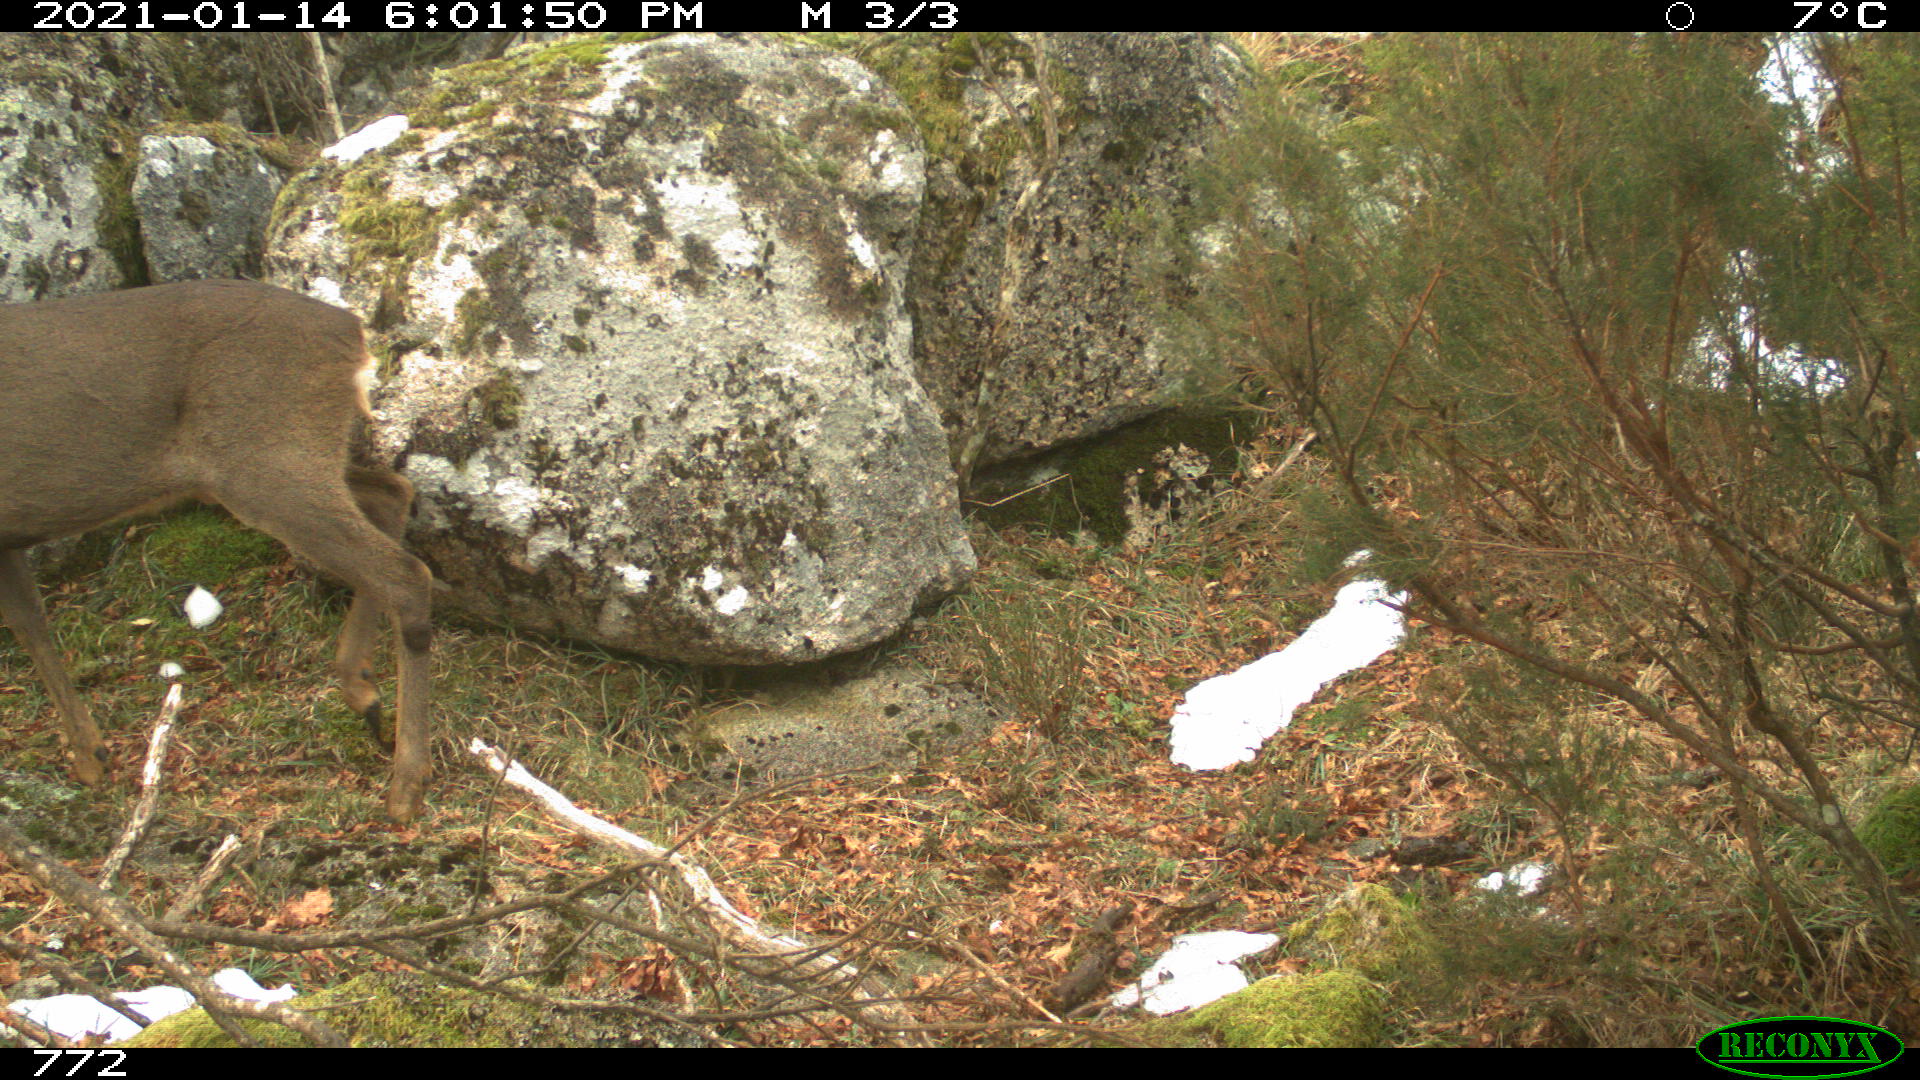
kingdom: Animalia
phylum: Chordata
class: Mammalia
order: Artiodactyla
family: Cervidae
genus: Capreolus
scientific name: Capreolus capreolus
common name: Western roe deer
